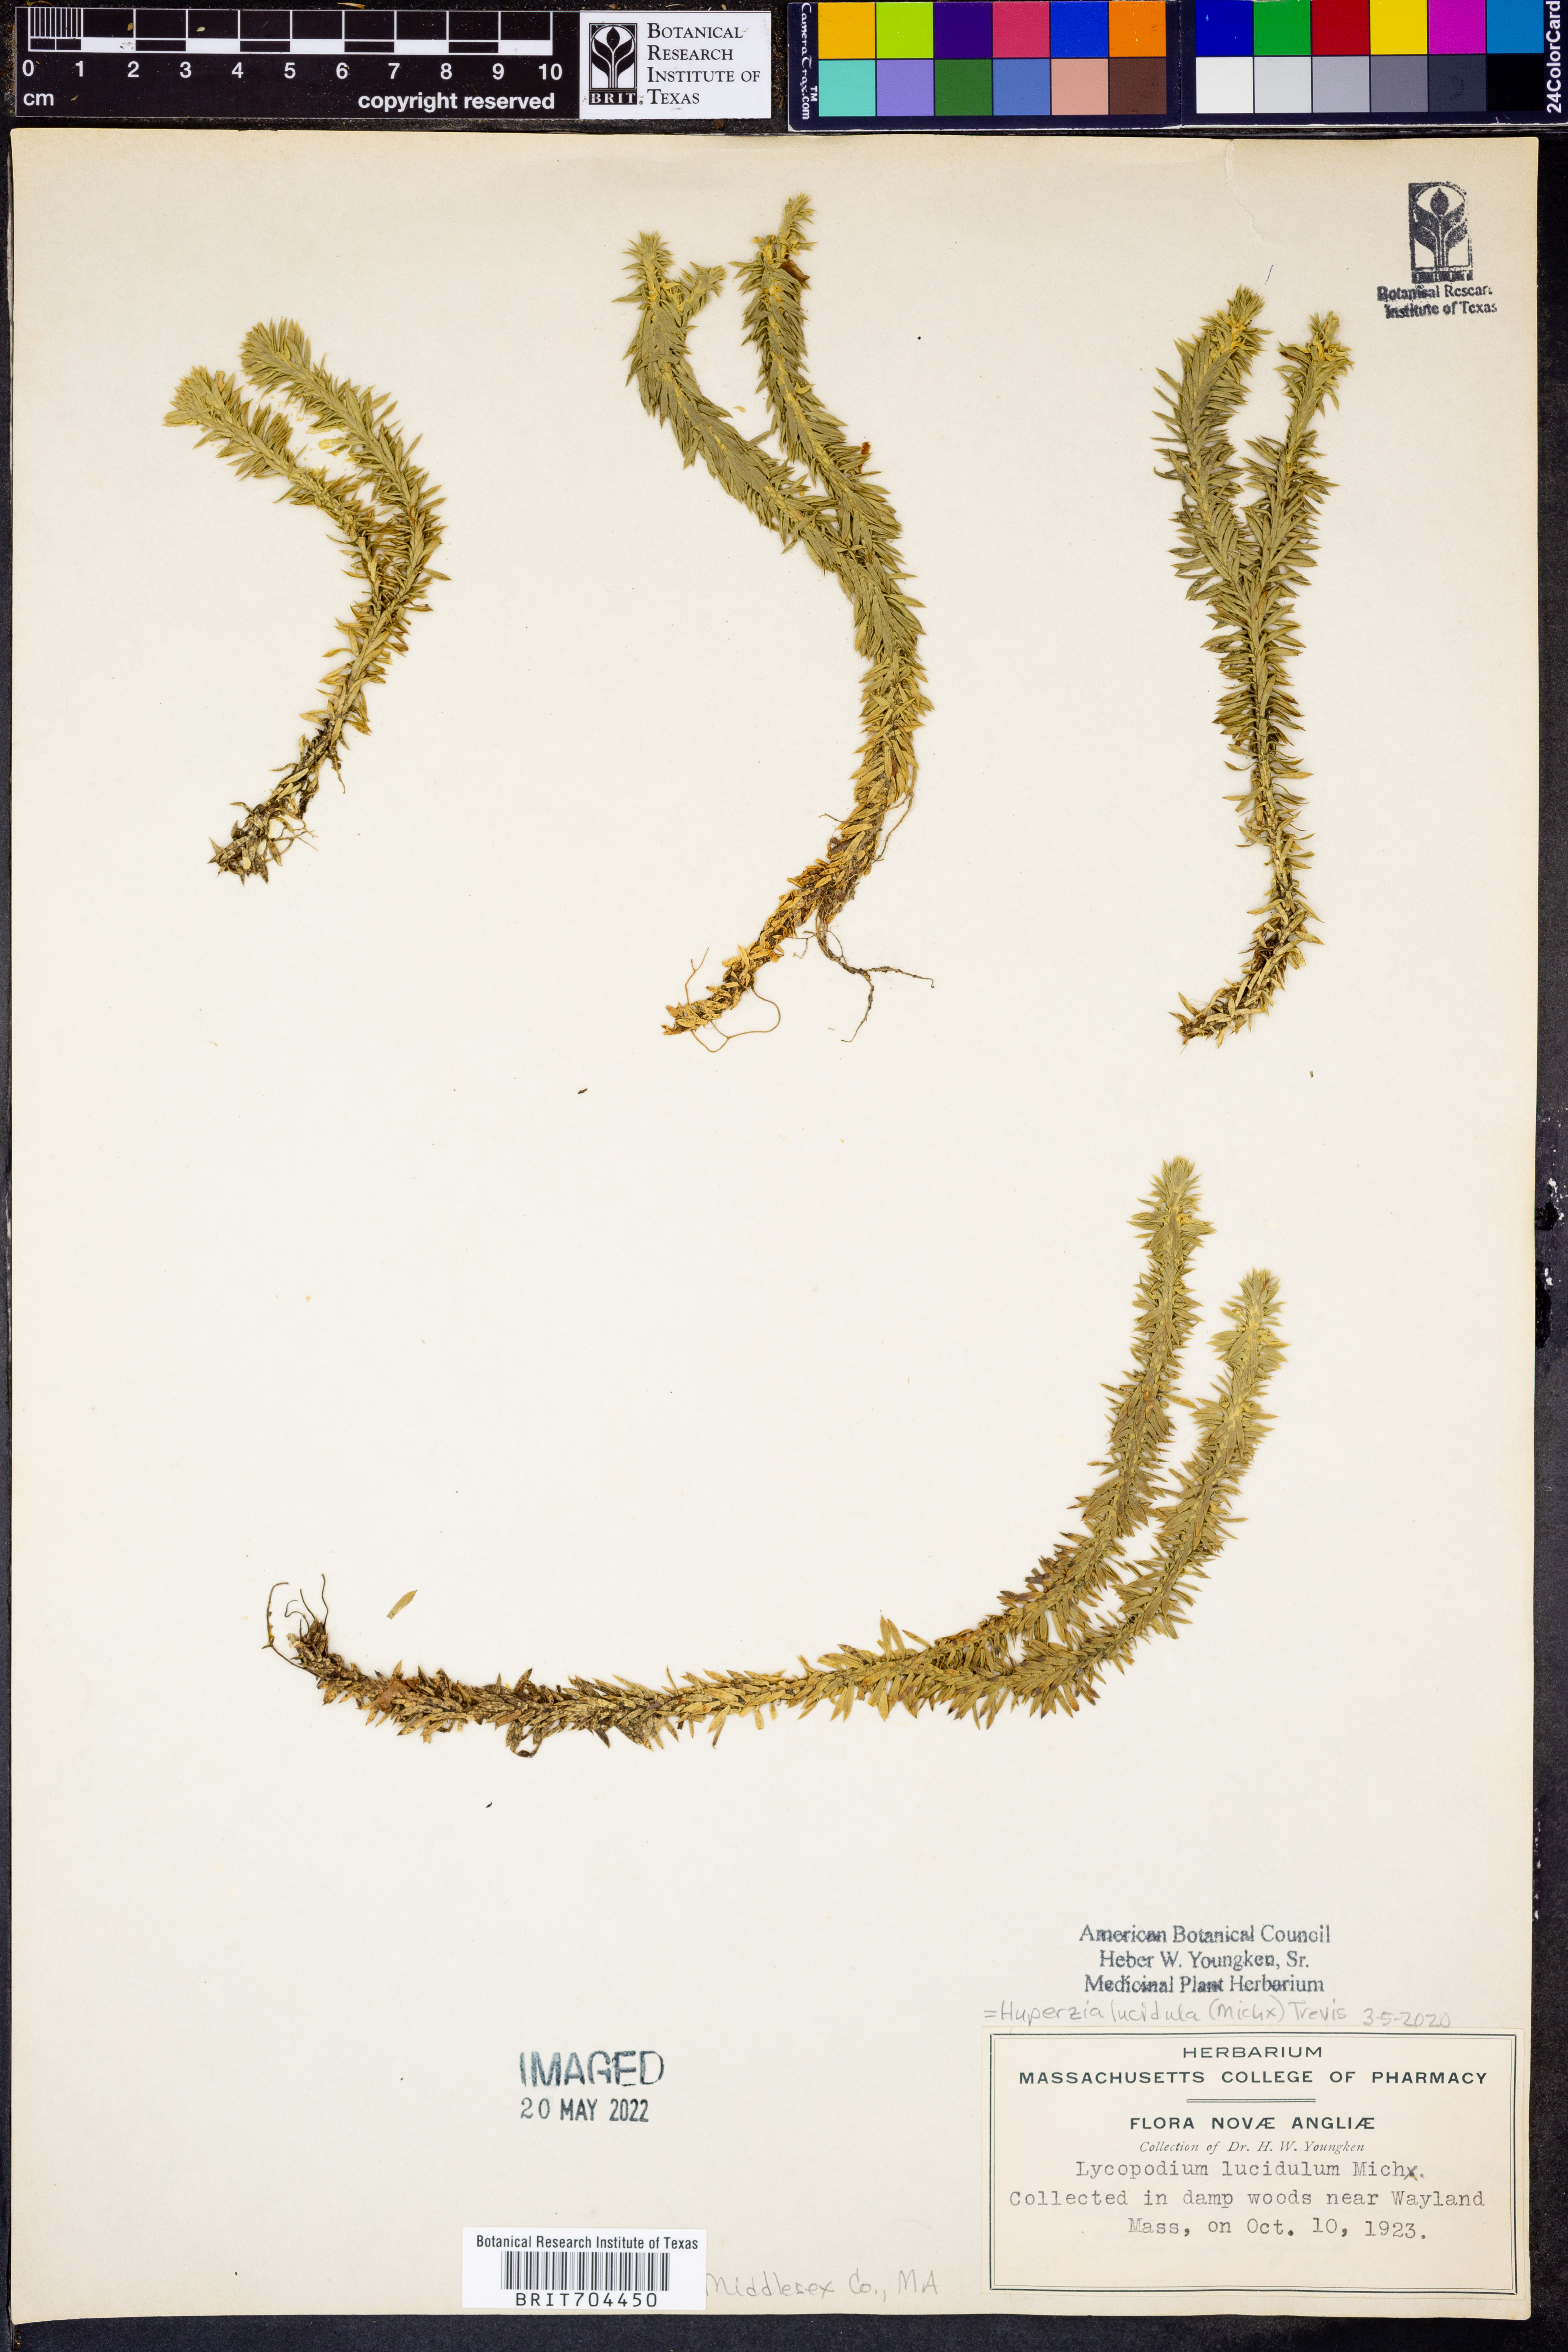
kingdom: Plantae
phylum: Tracheophyta
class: Lycopodiopsida
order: Lycopodiales
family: Lycopodiaceae
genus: Huperzia
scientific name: Huperzia lucidula
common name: Shining clubmoss
